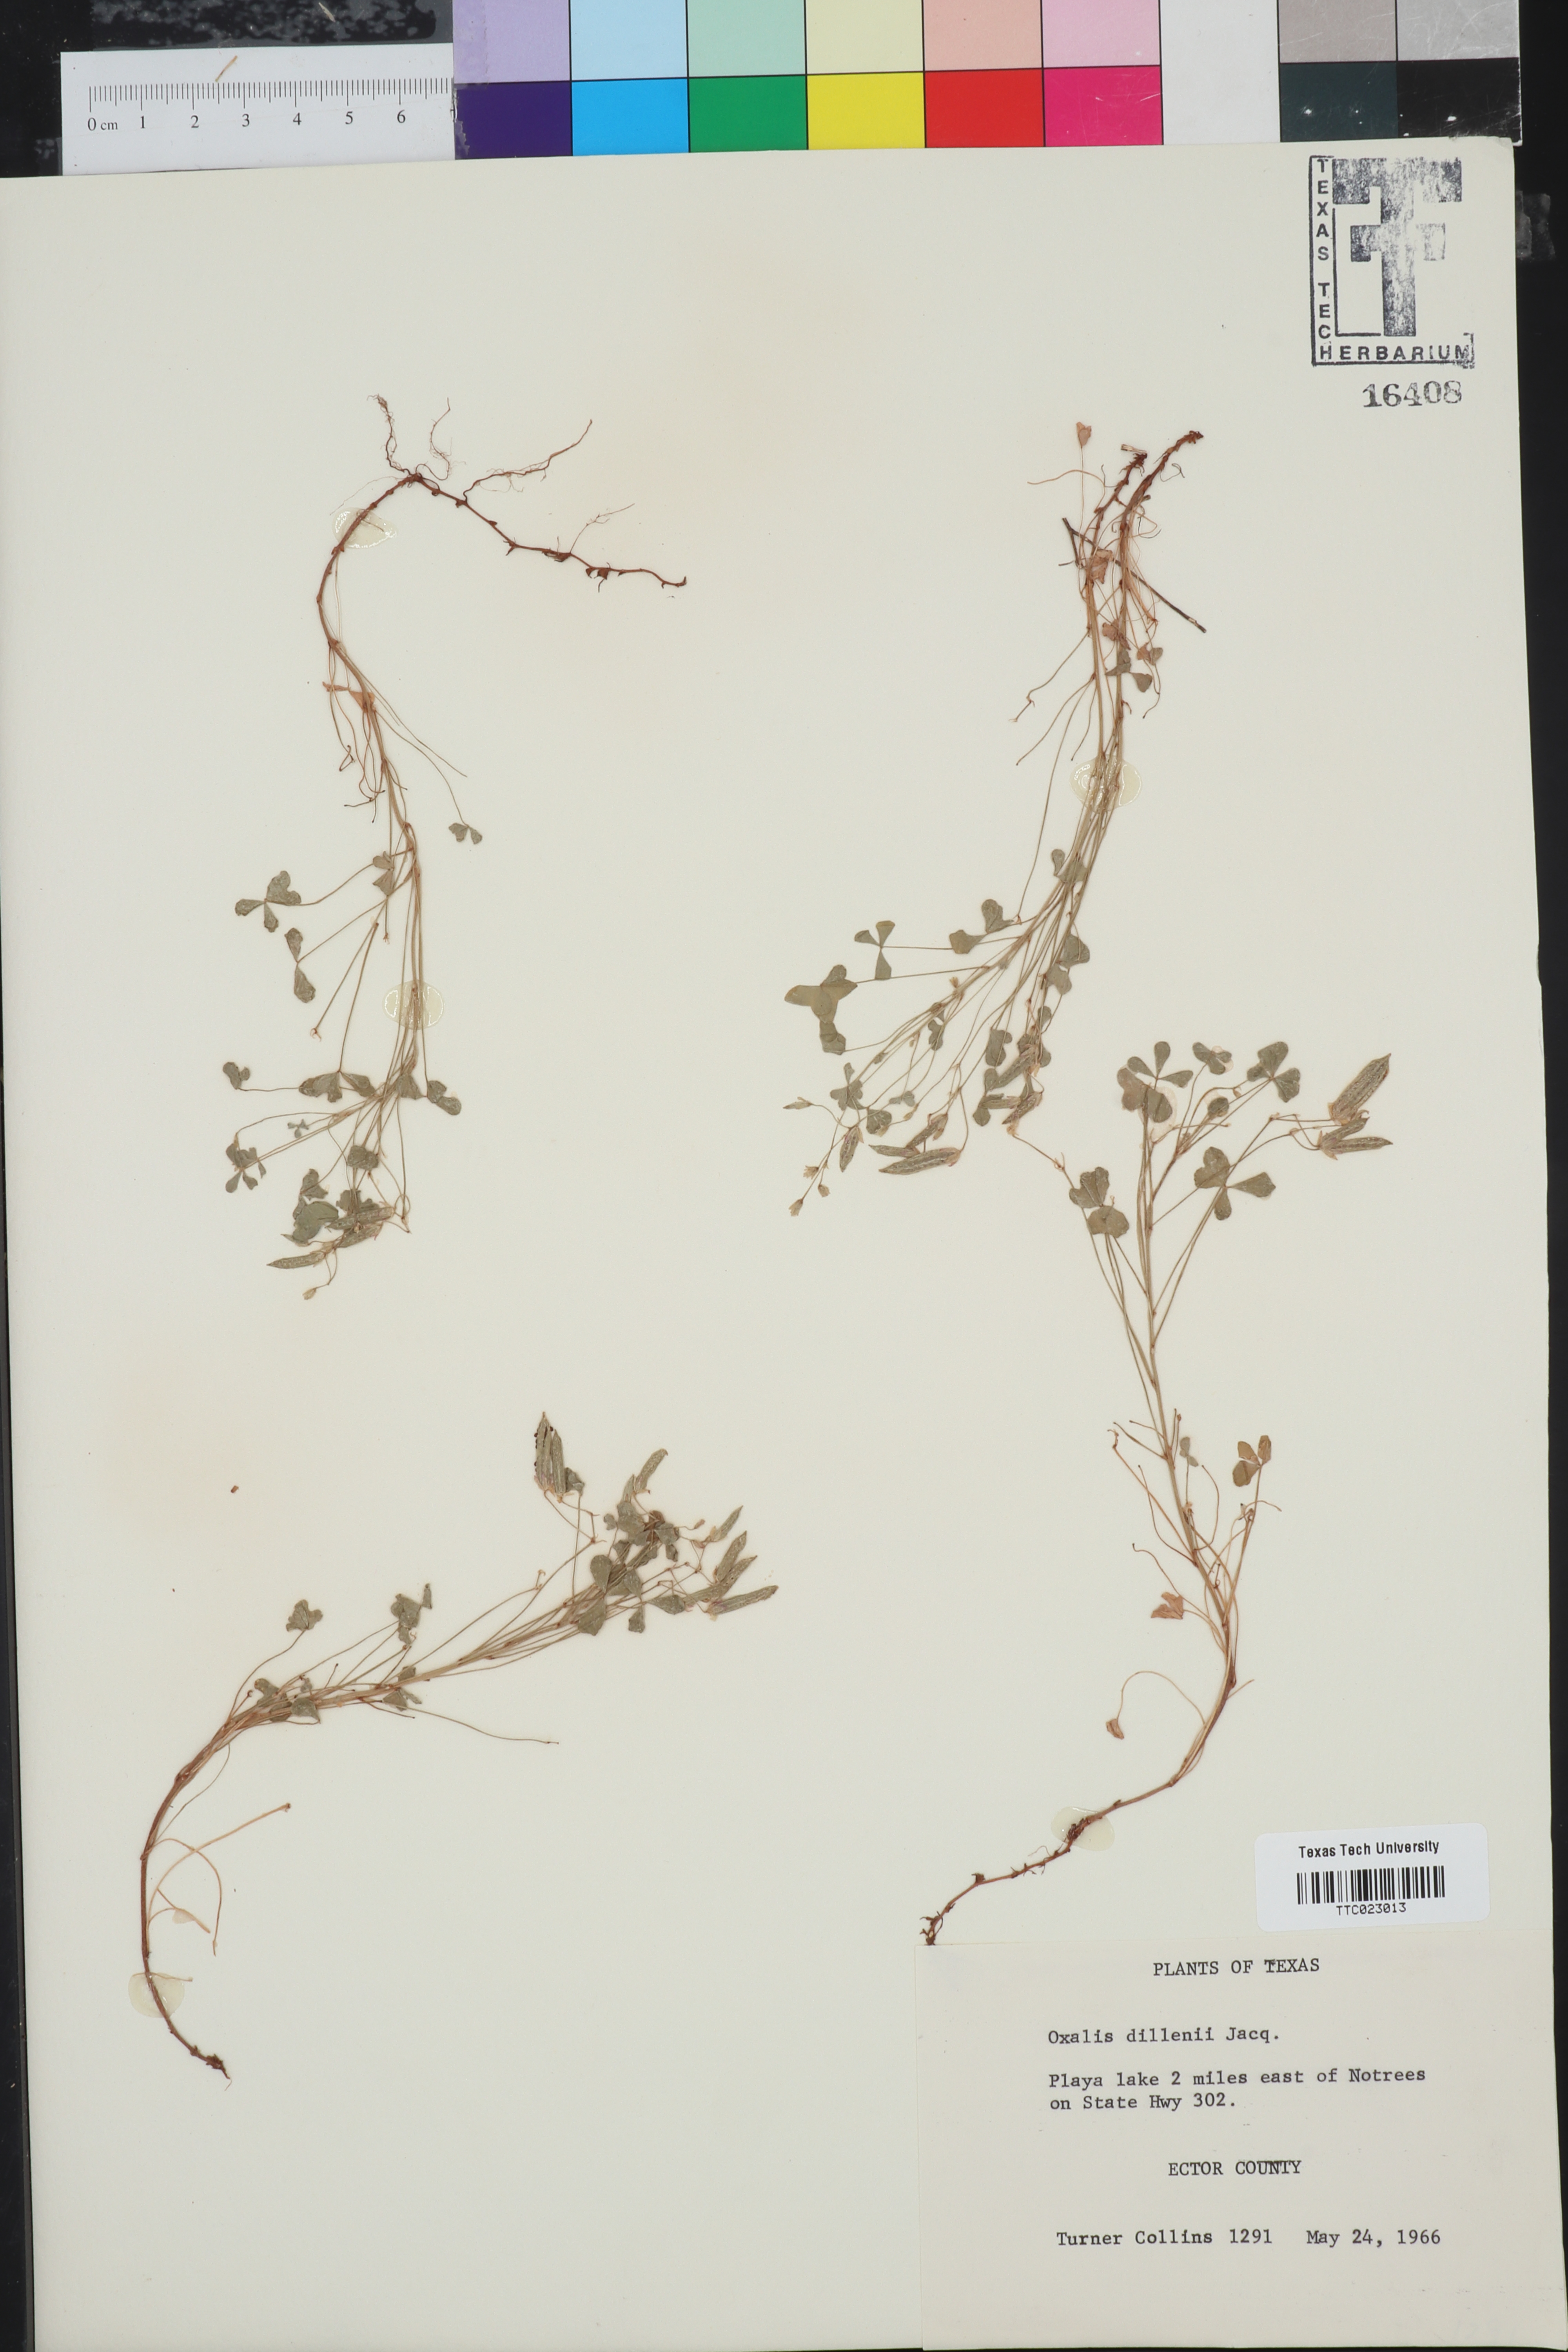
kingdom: Plantae
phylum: Tracheophyta
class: Magnoliopsida
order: Oxalidales
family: Oxalidaceae
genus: Oxalis
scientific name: Oxalis dillenii
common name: Sussex yellow-sorrel
